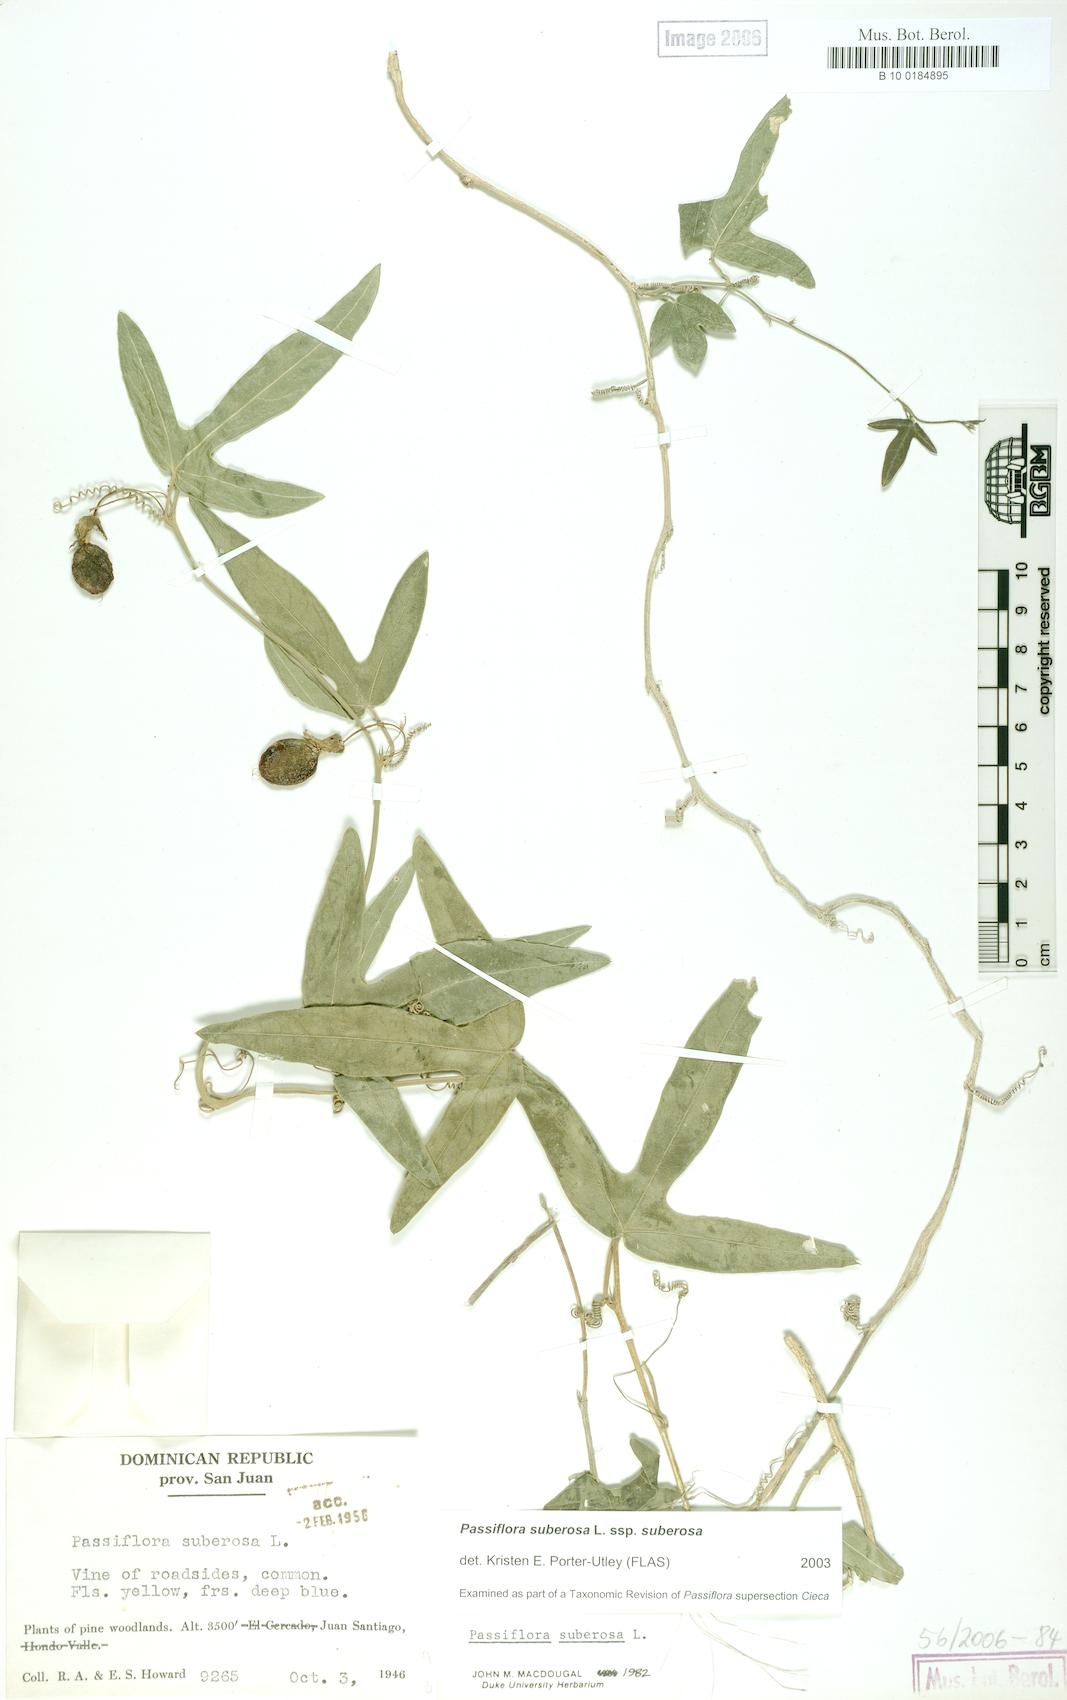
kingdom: Plantae
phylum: Tracheophyta
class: Magnoliopsida
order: Malpighiales
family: Passifloraceae
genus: Passiflora
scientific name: Passiflora suberosa
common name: Wild passionfruit
